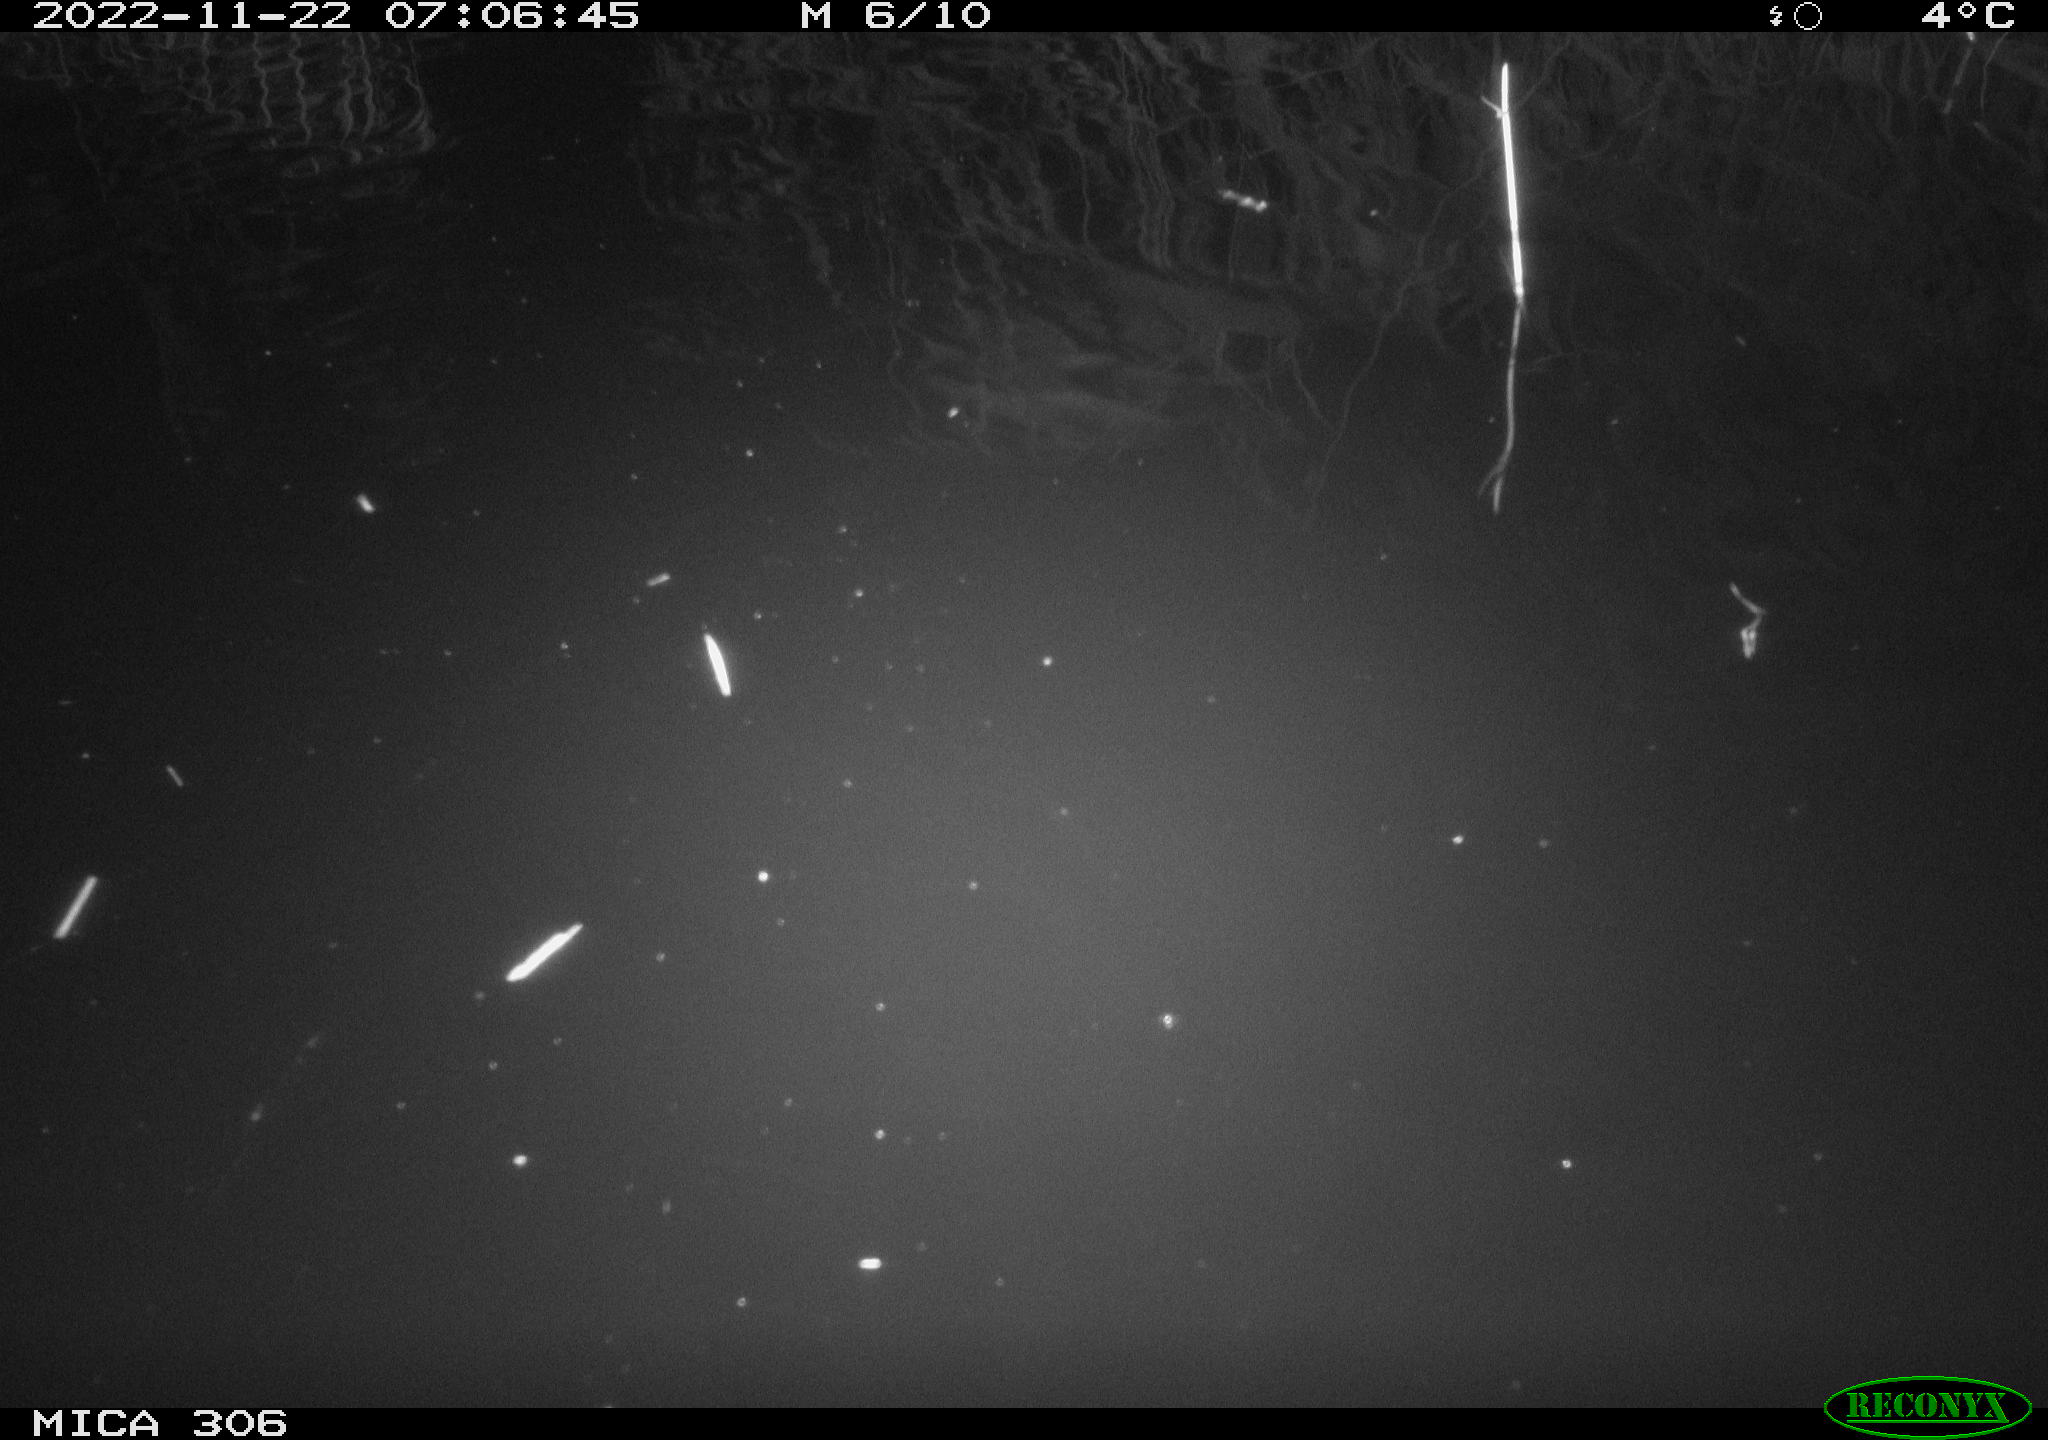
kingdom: Animalia
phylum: Chordata
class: Mammalia
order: Rodentia
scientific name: Rodentia
